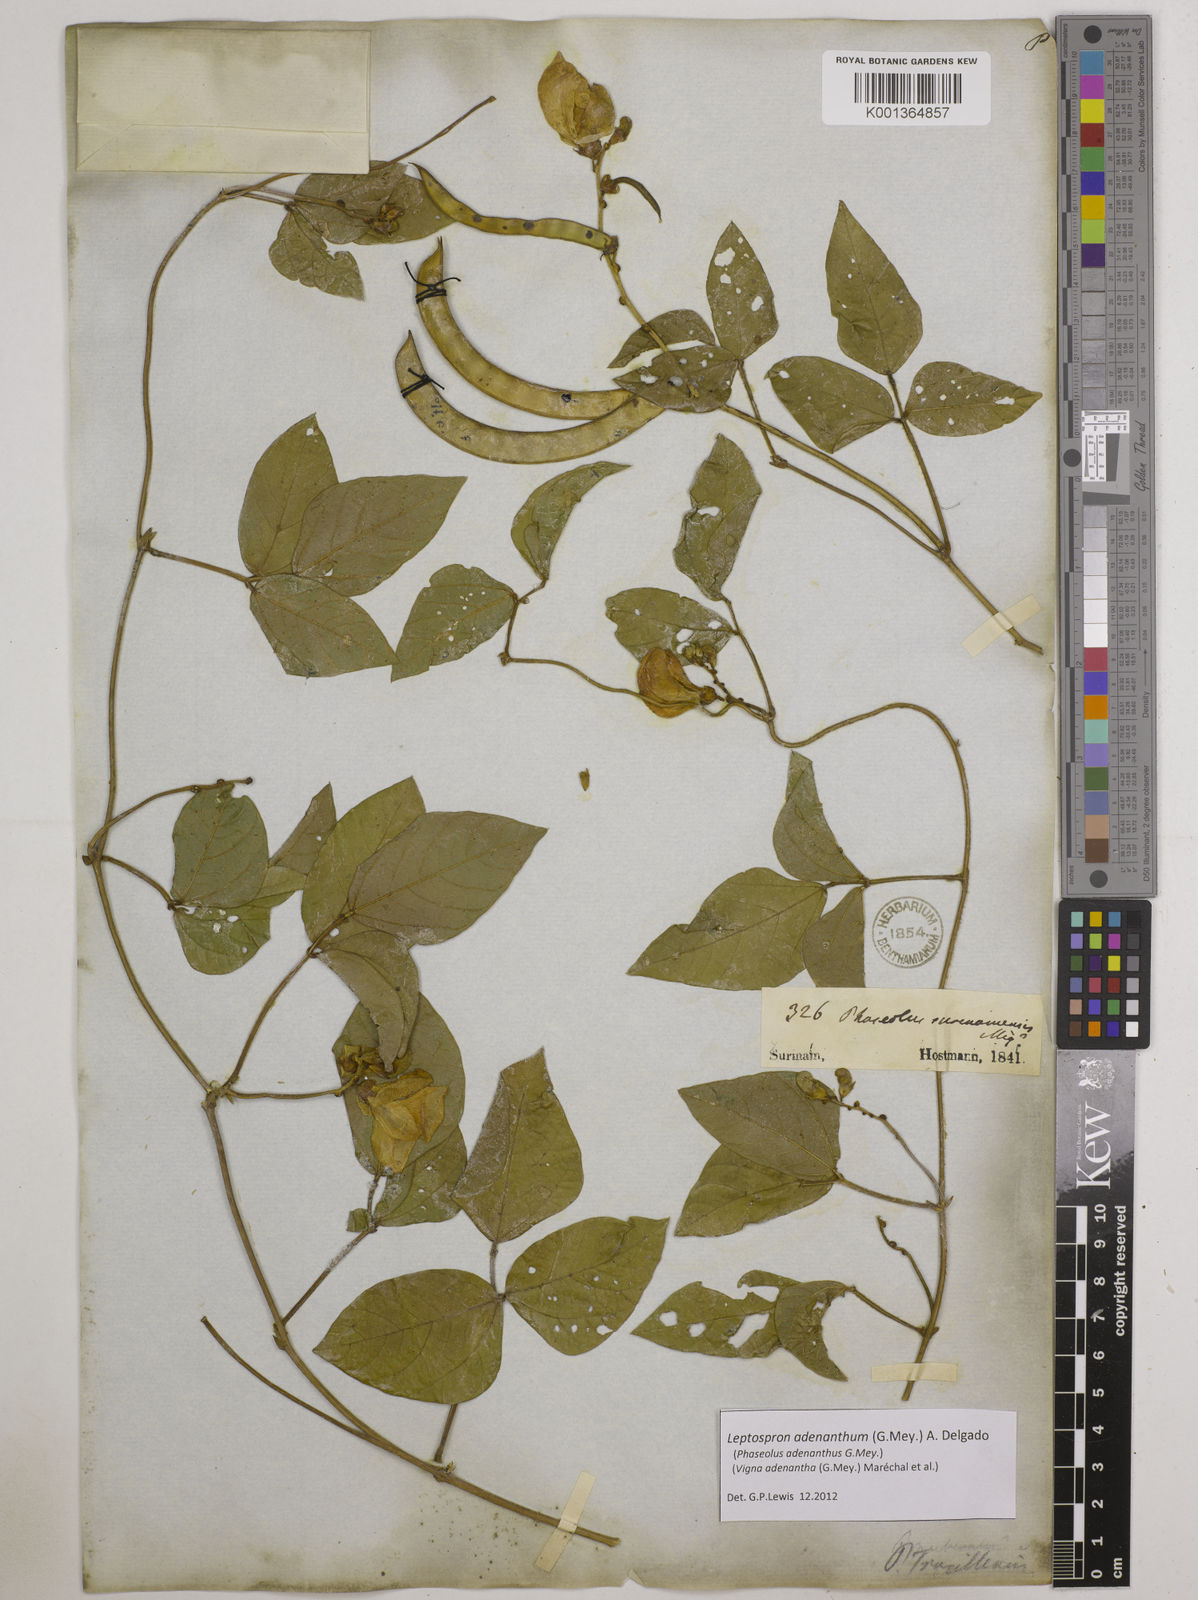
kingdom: Plantae
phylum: Tracheophyta
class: Magnoliopsida
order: Fabales
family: Fabaceae
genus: Leptospron
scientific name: Leptospron adenanthum
